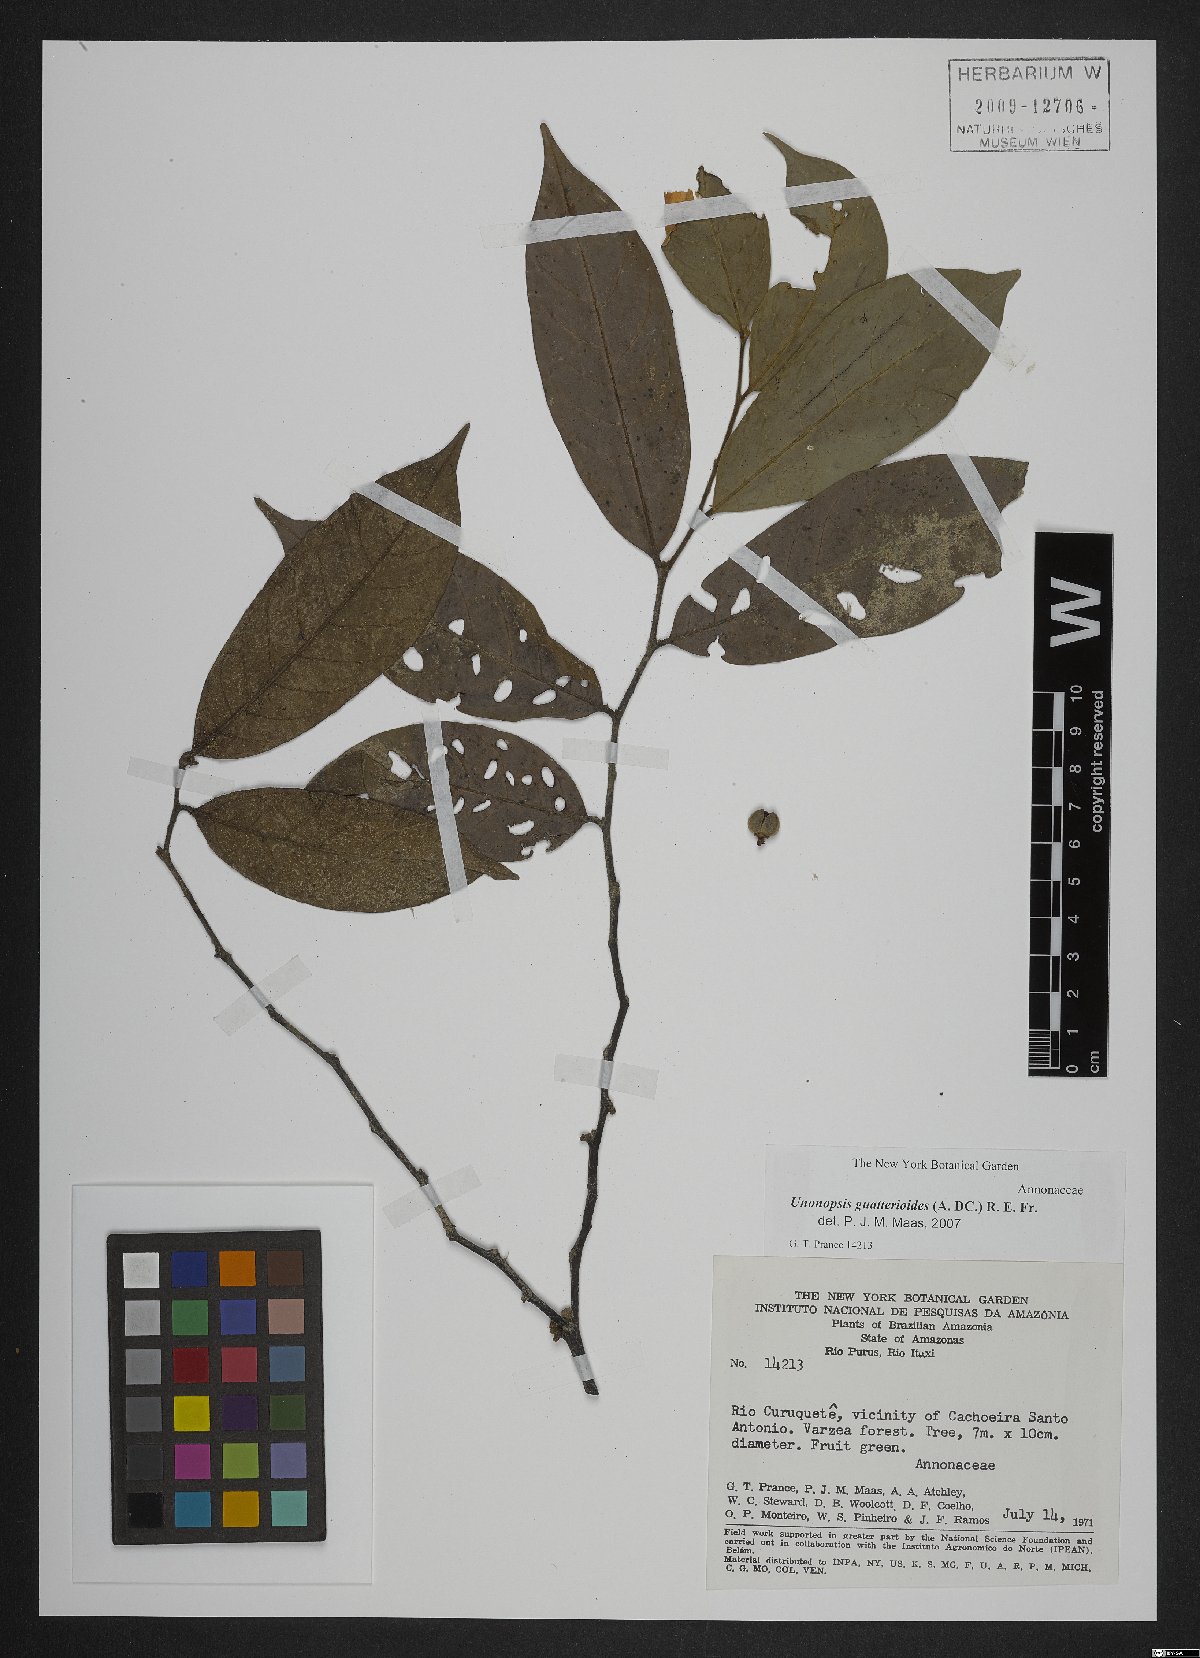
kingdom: Plantae
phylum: Tracheophyta
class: Magnoliopsida
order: Magnoliales
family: Annonaceae
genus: Unonopsis
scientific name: Unonopsis guatterioides
